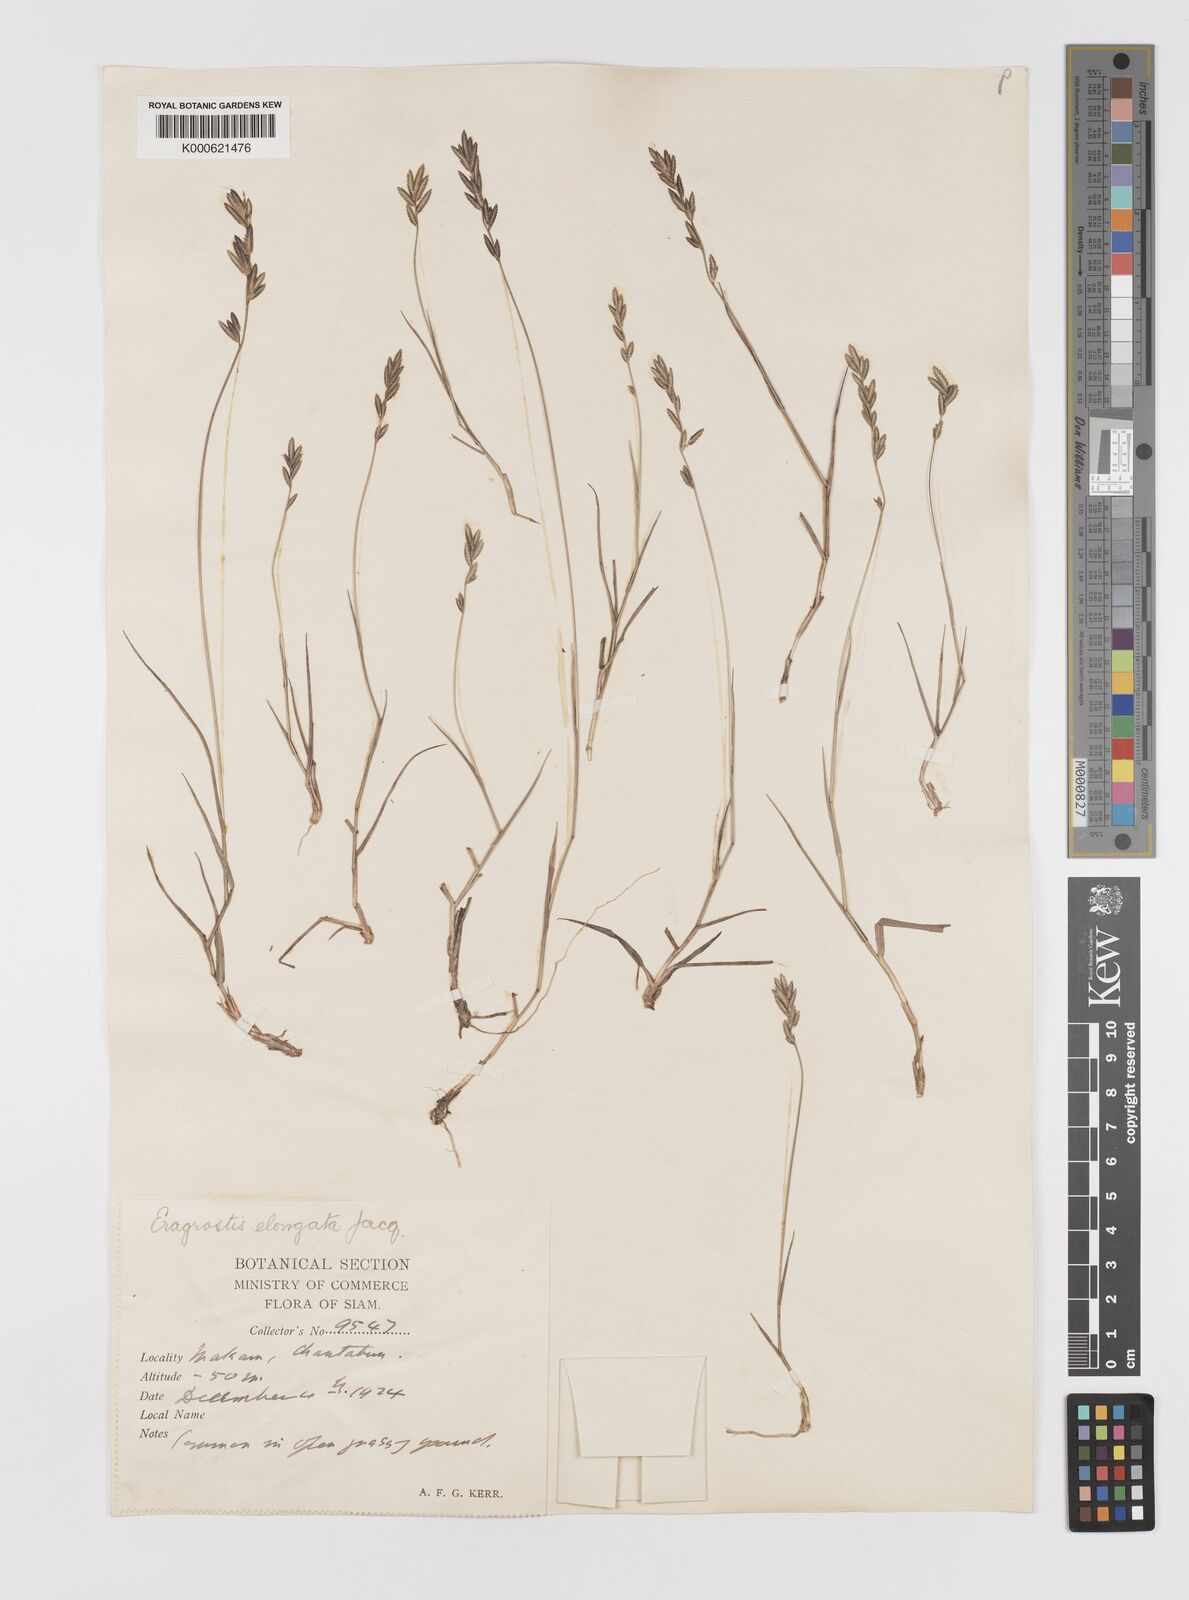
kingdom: Plantae
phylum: Tracheophyta
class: Liliopsida
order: Poales
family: Poaceae
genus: Eragrostis
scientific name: Eragrostis brownii
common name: Lovegrass
